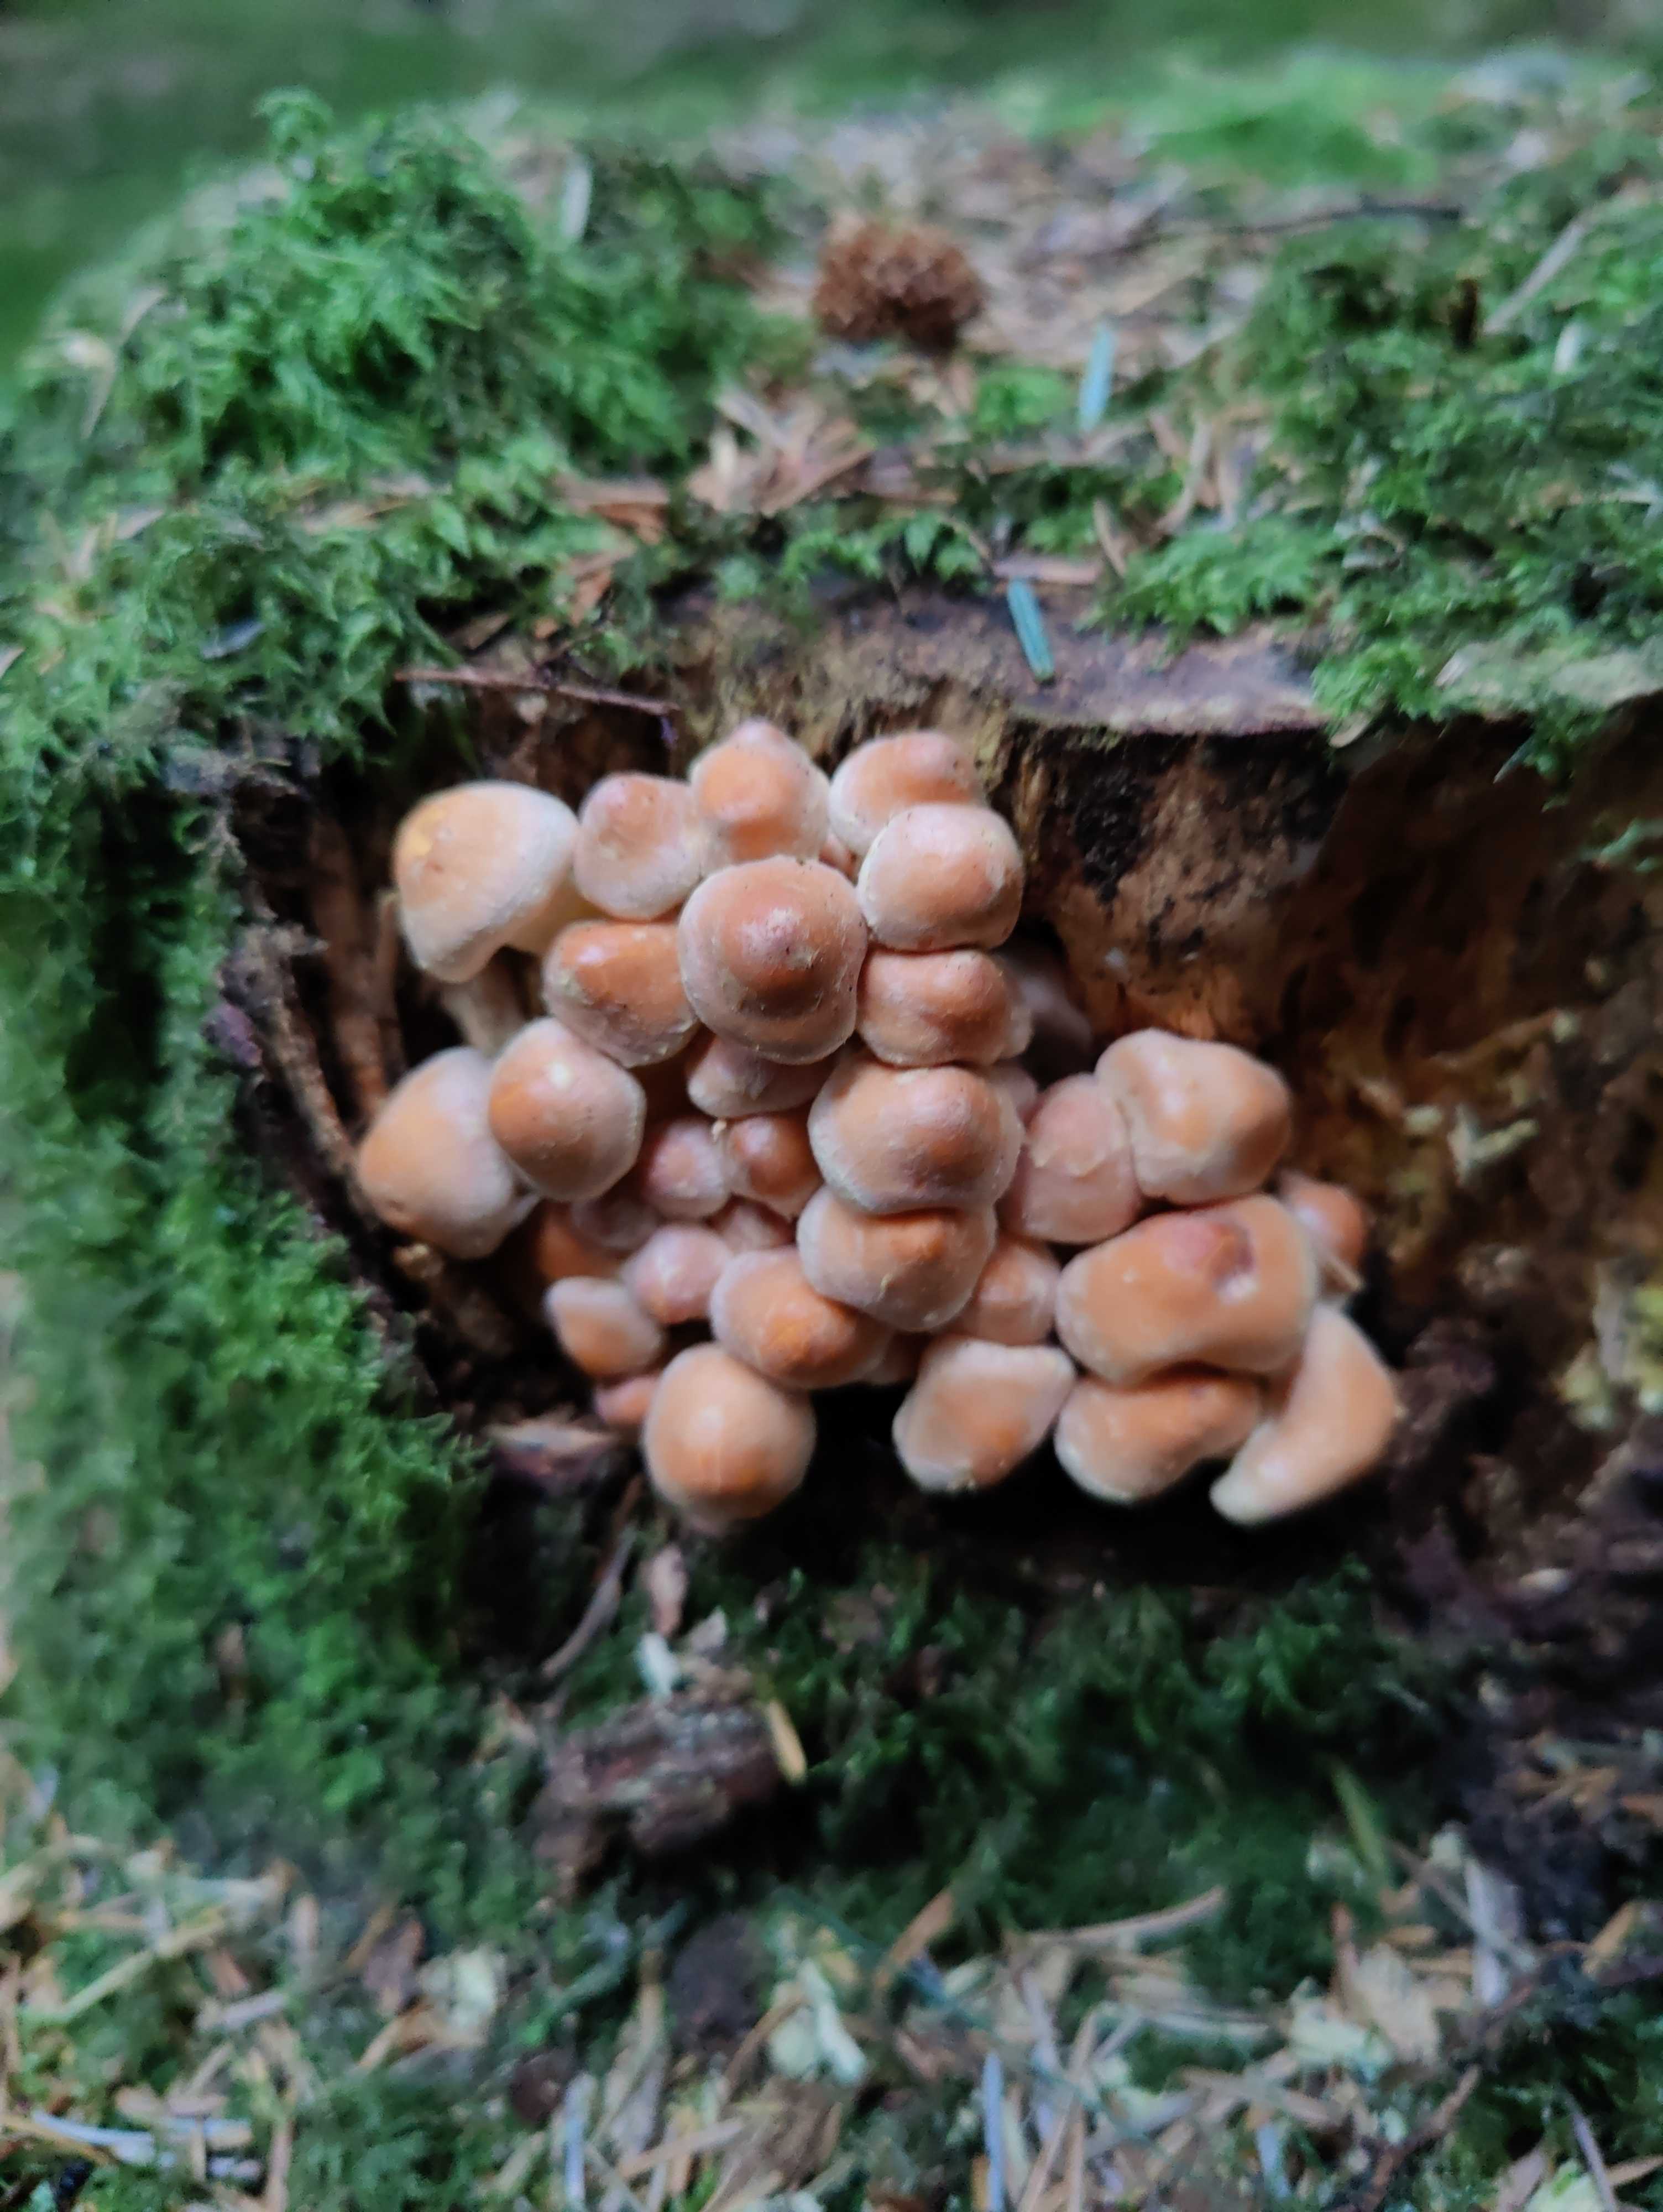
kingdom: Fungi
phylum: Basidiomycota
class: Agaricomycetes
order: Agaricales
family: Strophariaceae
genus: Hypholoma
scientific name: Hypholoma fasciculare
